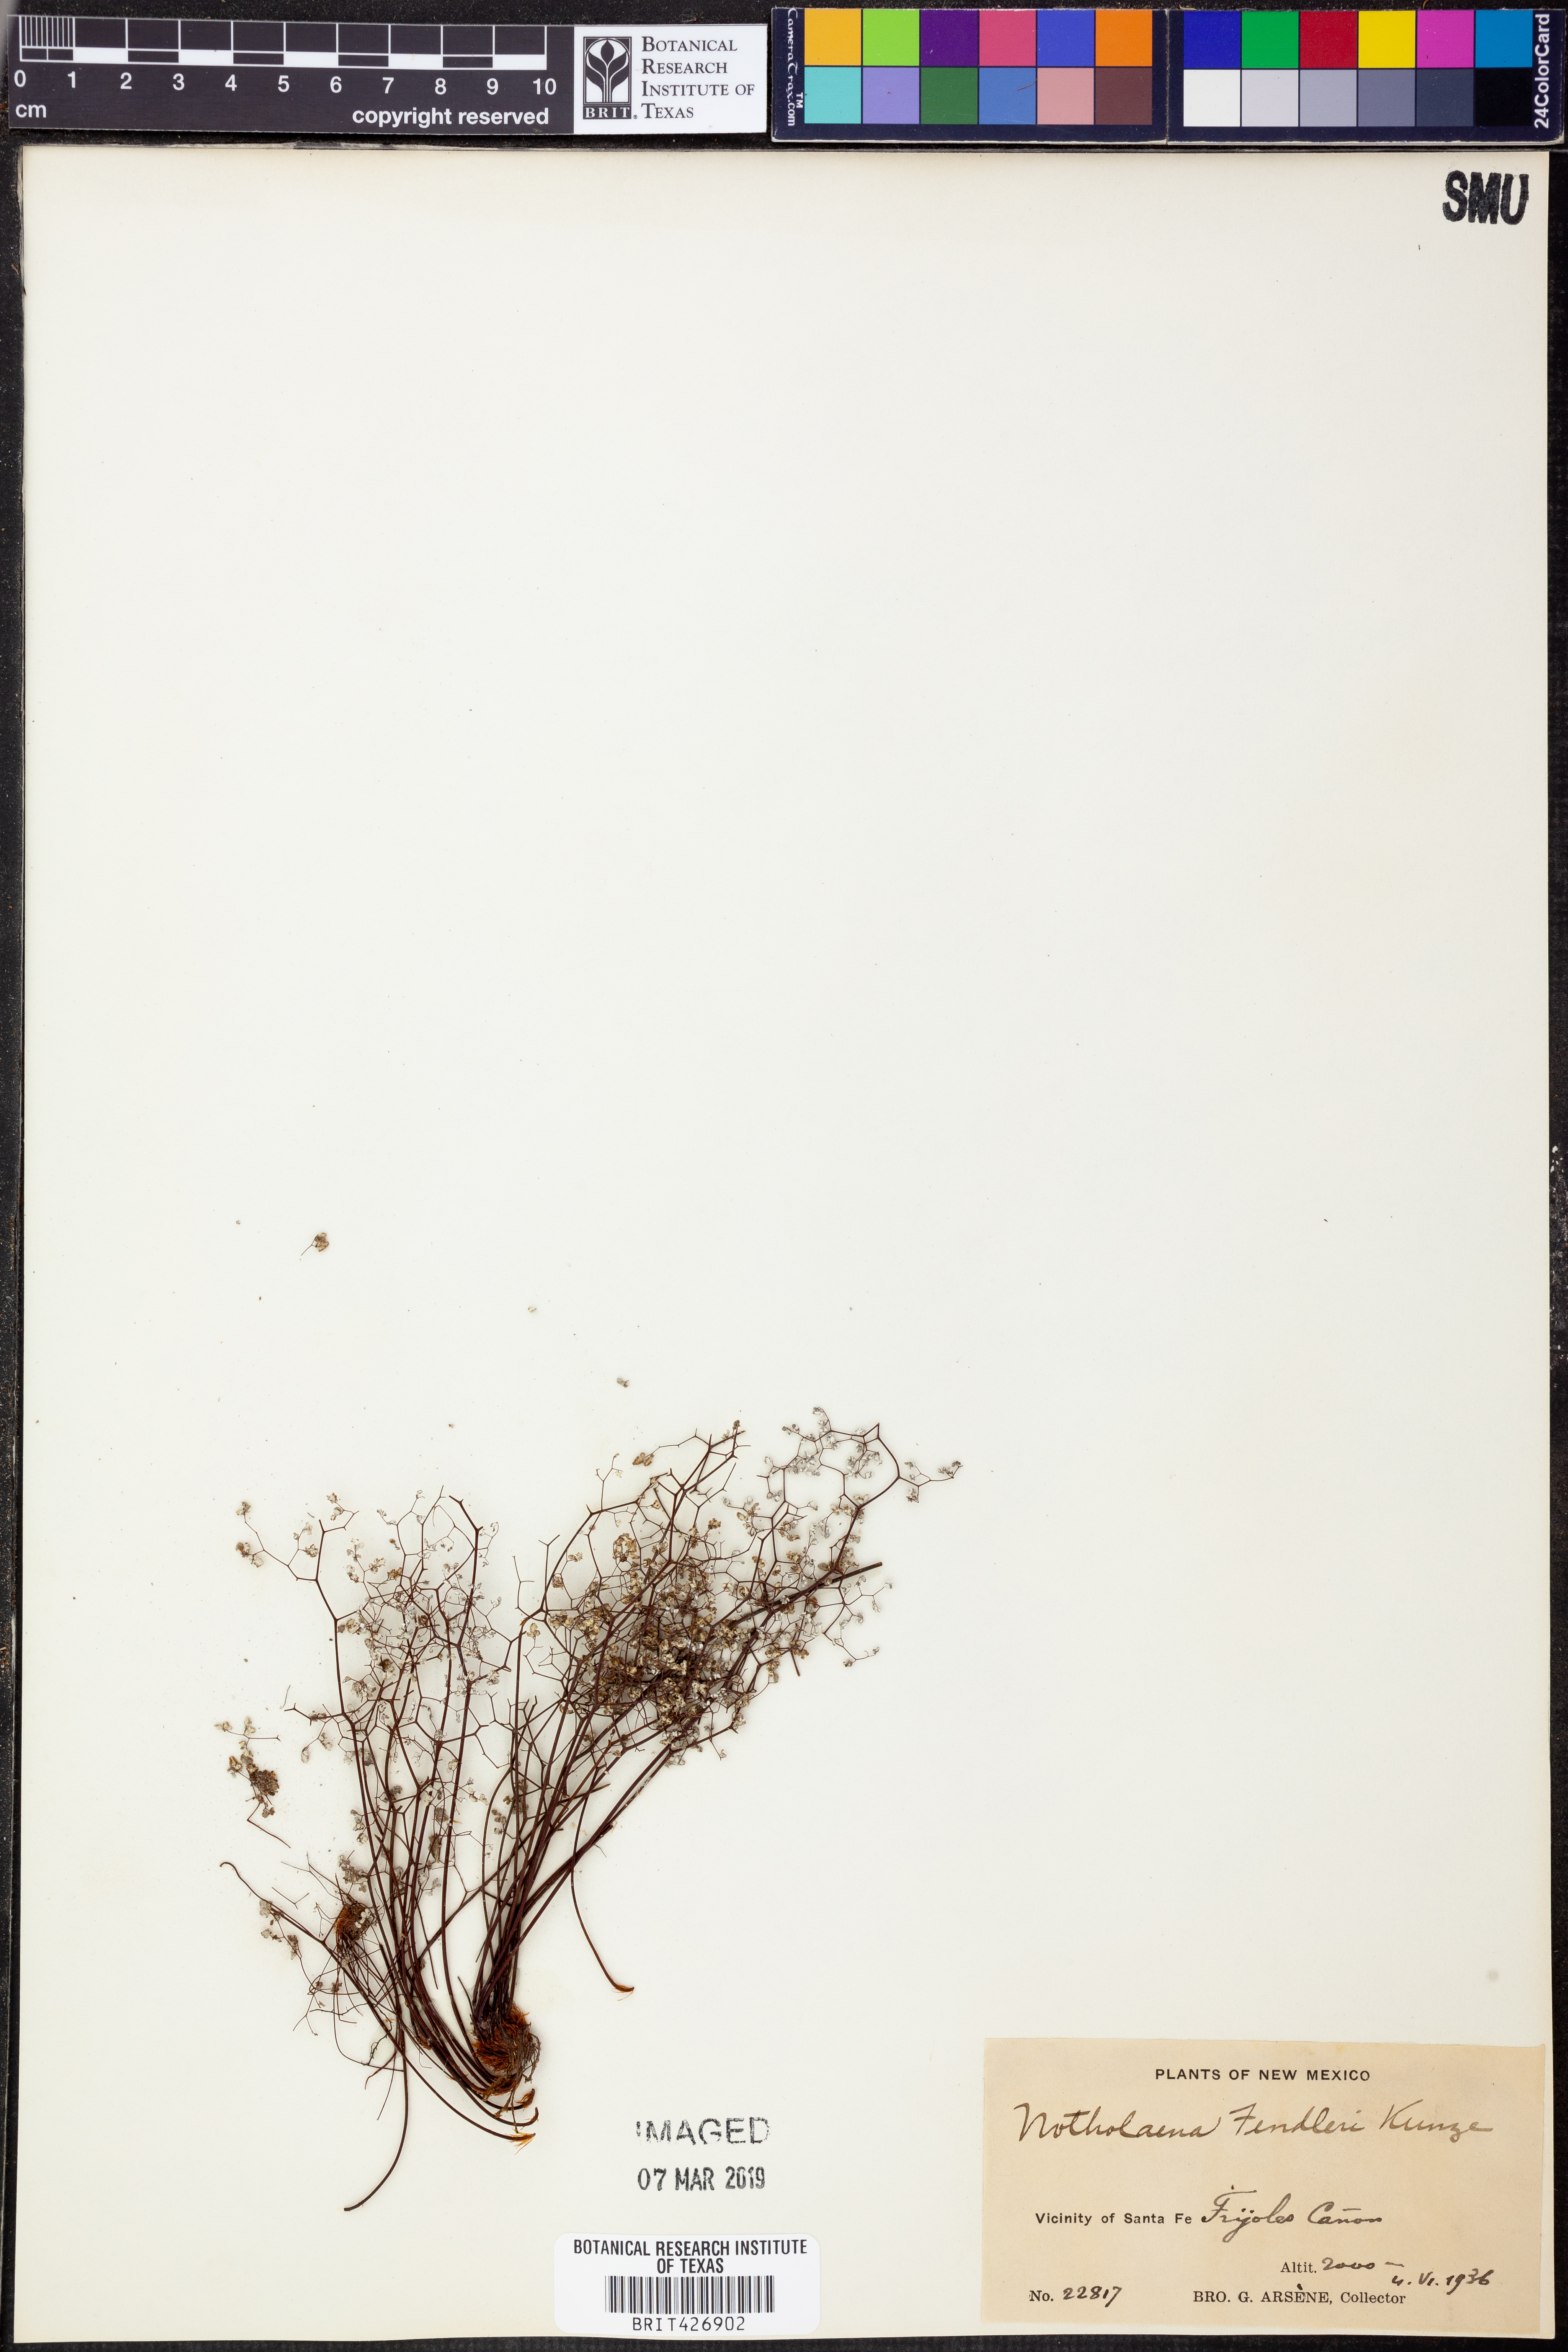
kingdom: Plantae
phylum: Tracheophyta
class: Polypodiopsida
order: Polypodiales
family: Pteridaceae
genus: Argyrochosma
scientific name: Argyrochosma fendleri
